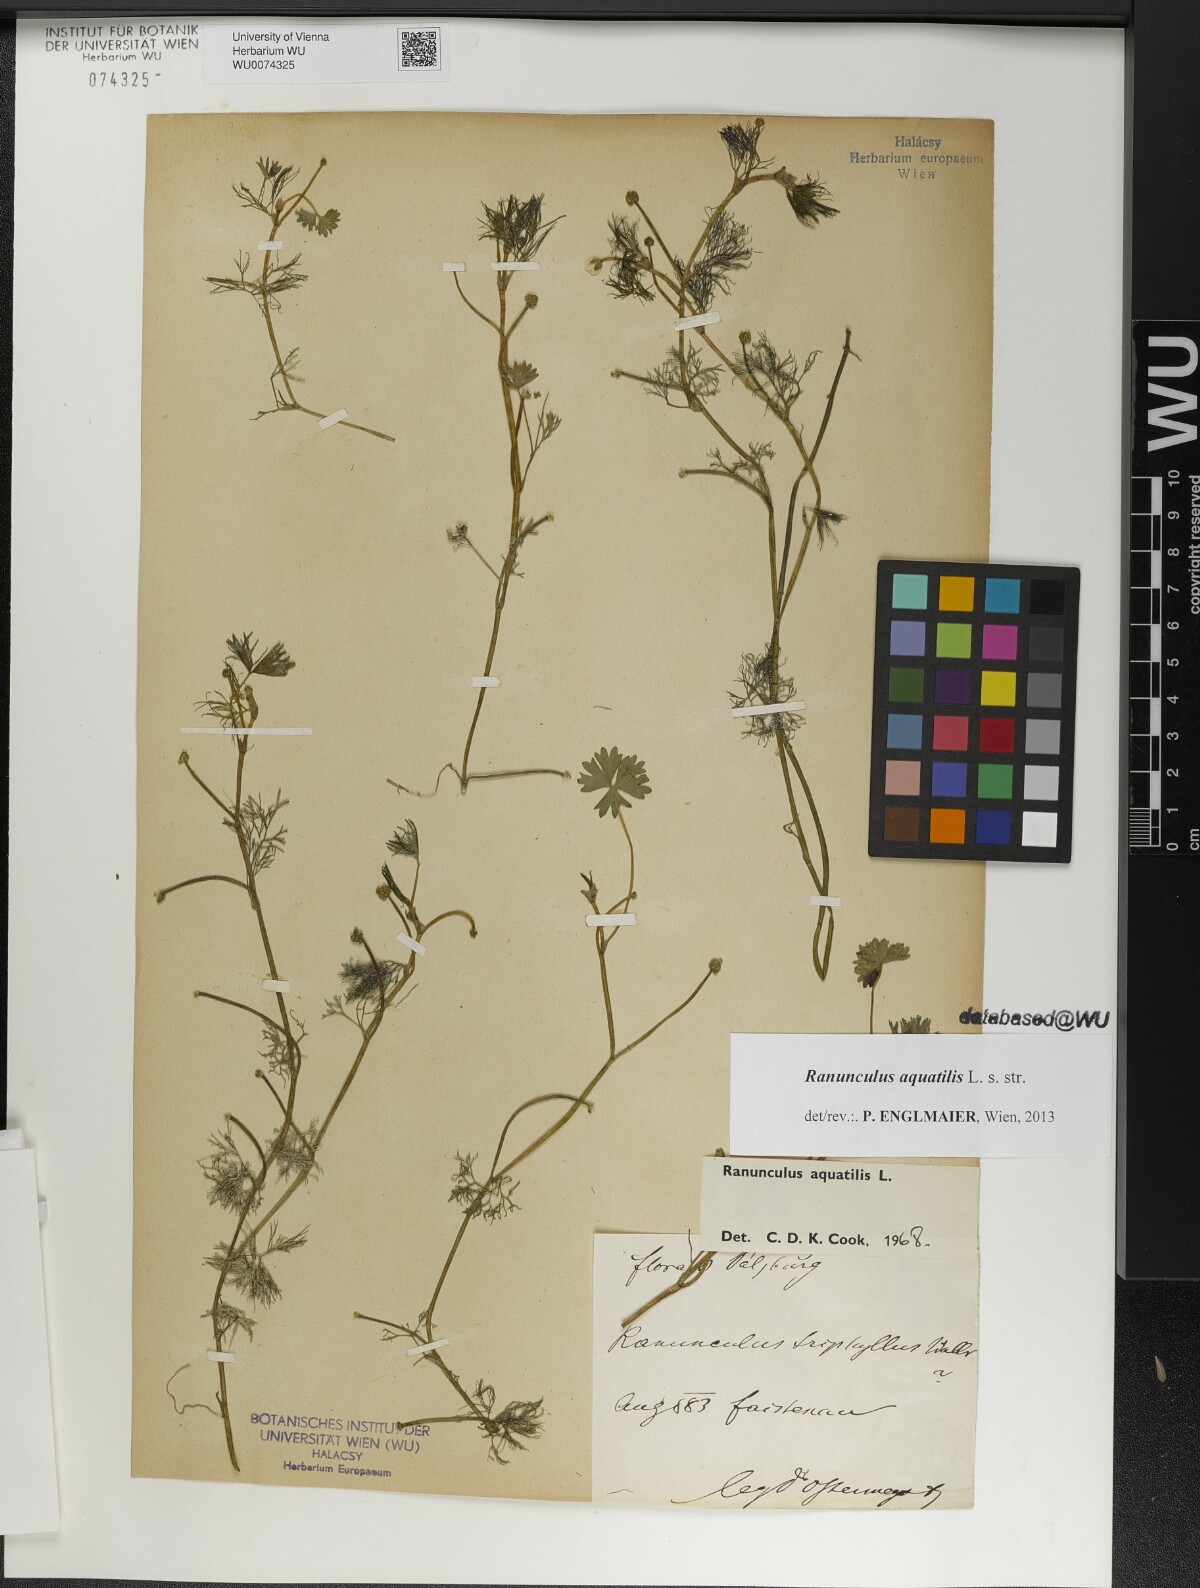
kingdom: Plantae
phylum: Tracheophyta
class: Magnoliopsida
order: Ranunculales
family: Ranunculaceae
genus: Ranunculus
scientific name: Ranunculus aquatilis
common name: Common water-crowfoot
